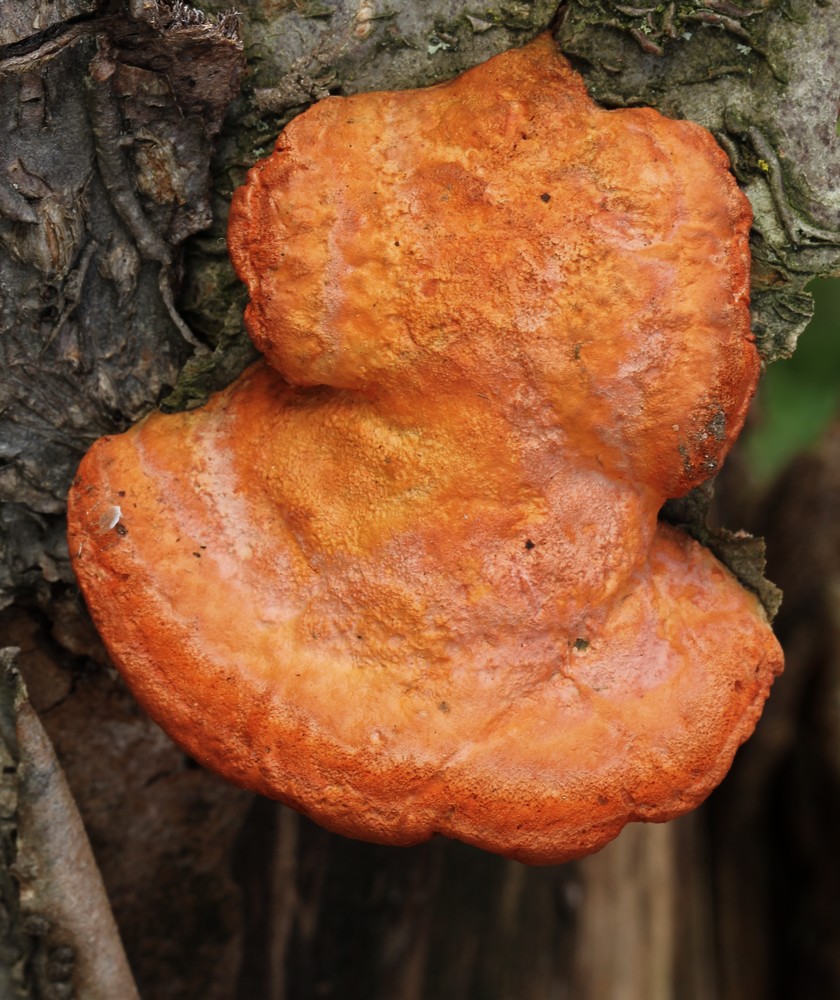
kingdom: Fungi
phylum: Basidiomycota
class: Agaricomycetes
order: Polyporales
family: Polyporaceae
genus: Trametes
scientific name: Trametes cinnabarina
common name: cinnoberporesvamp
